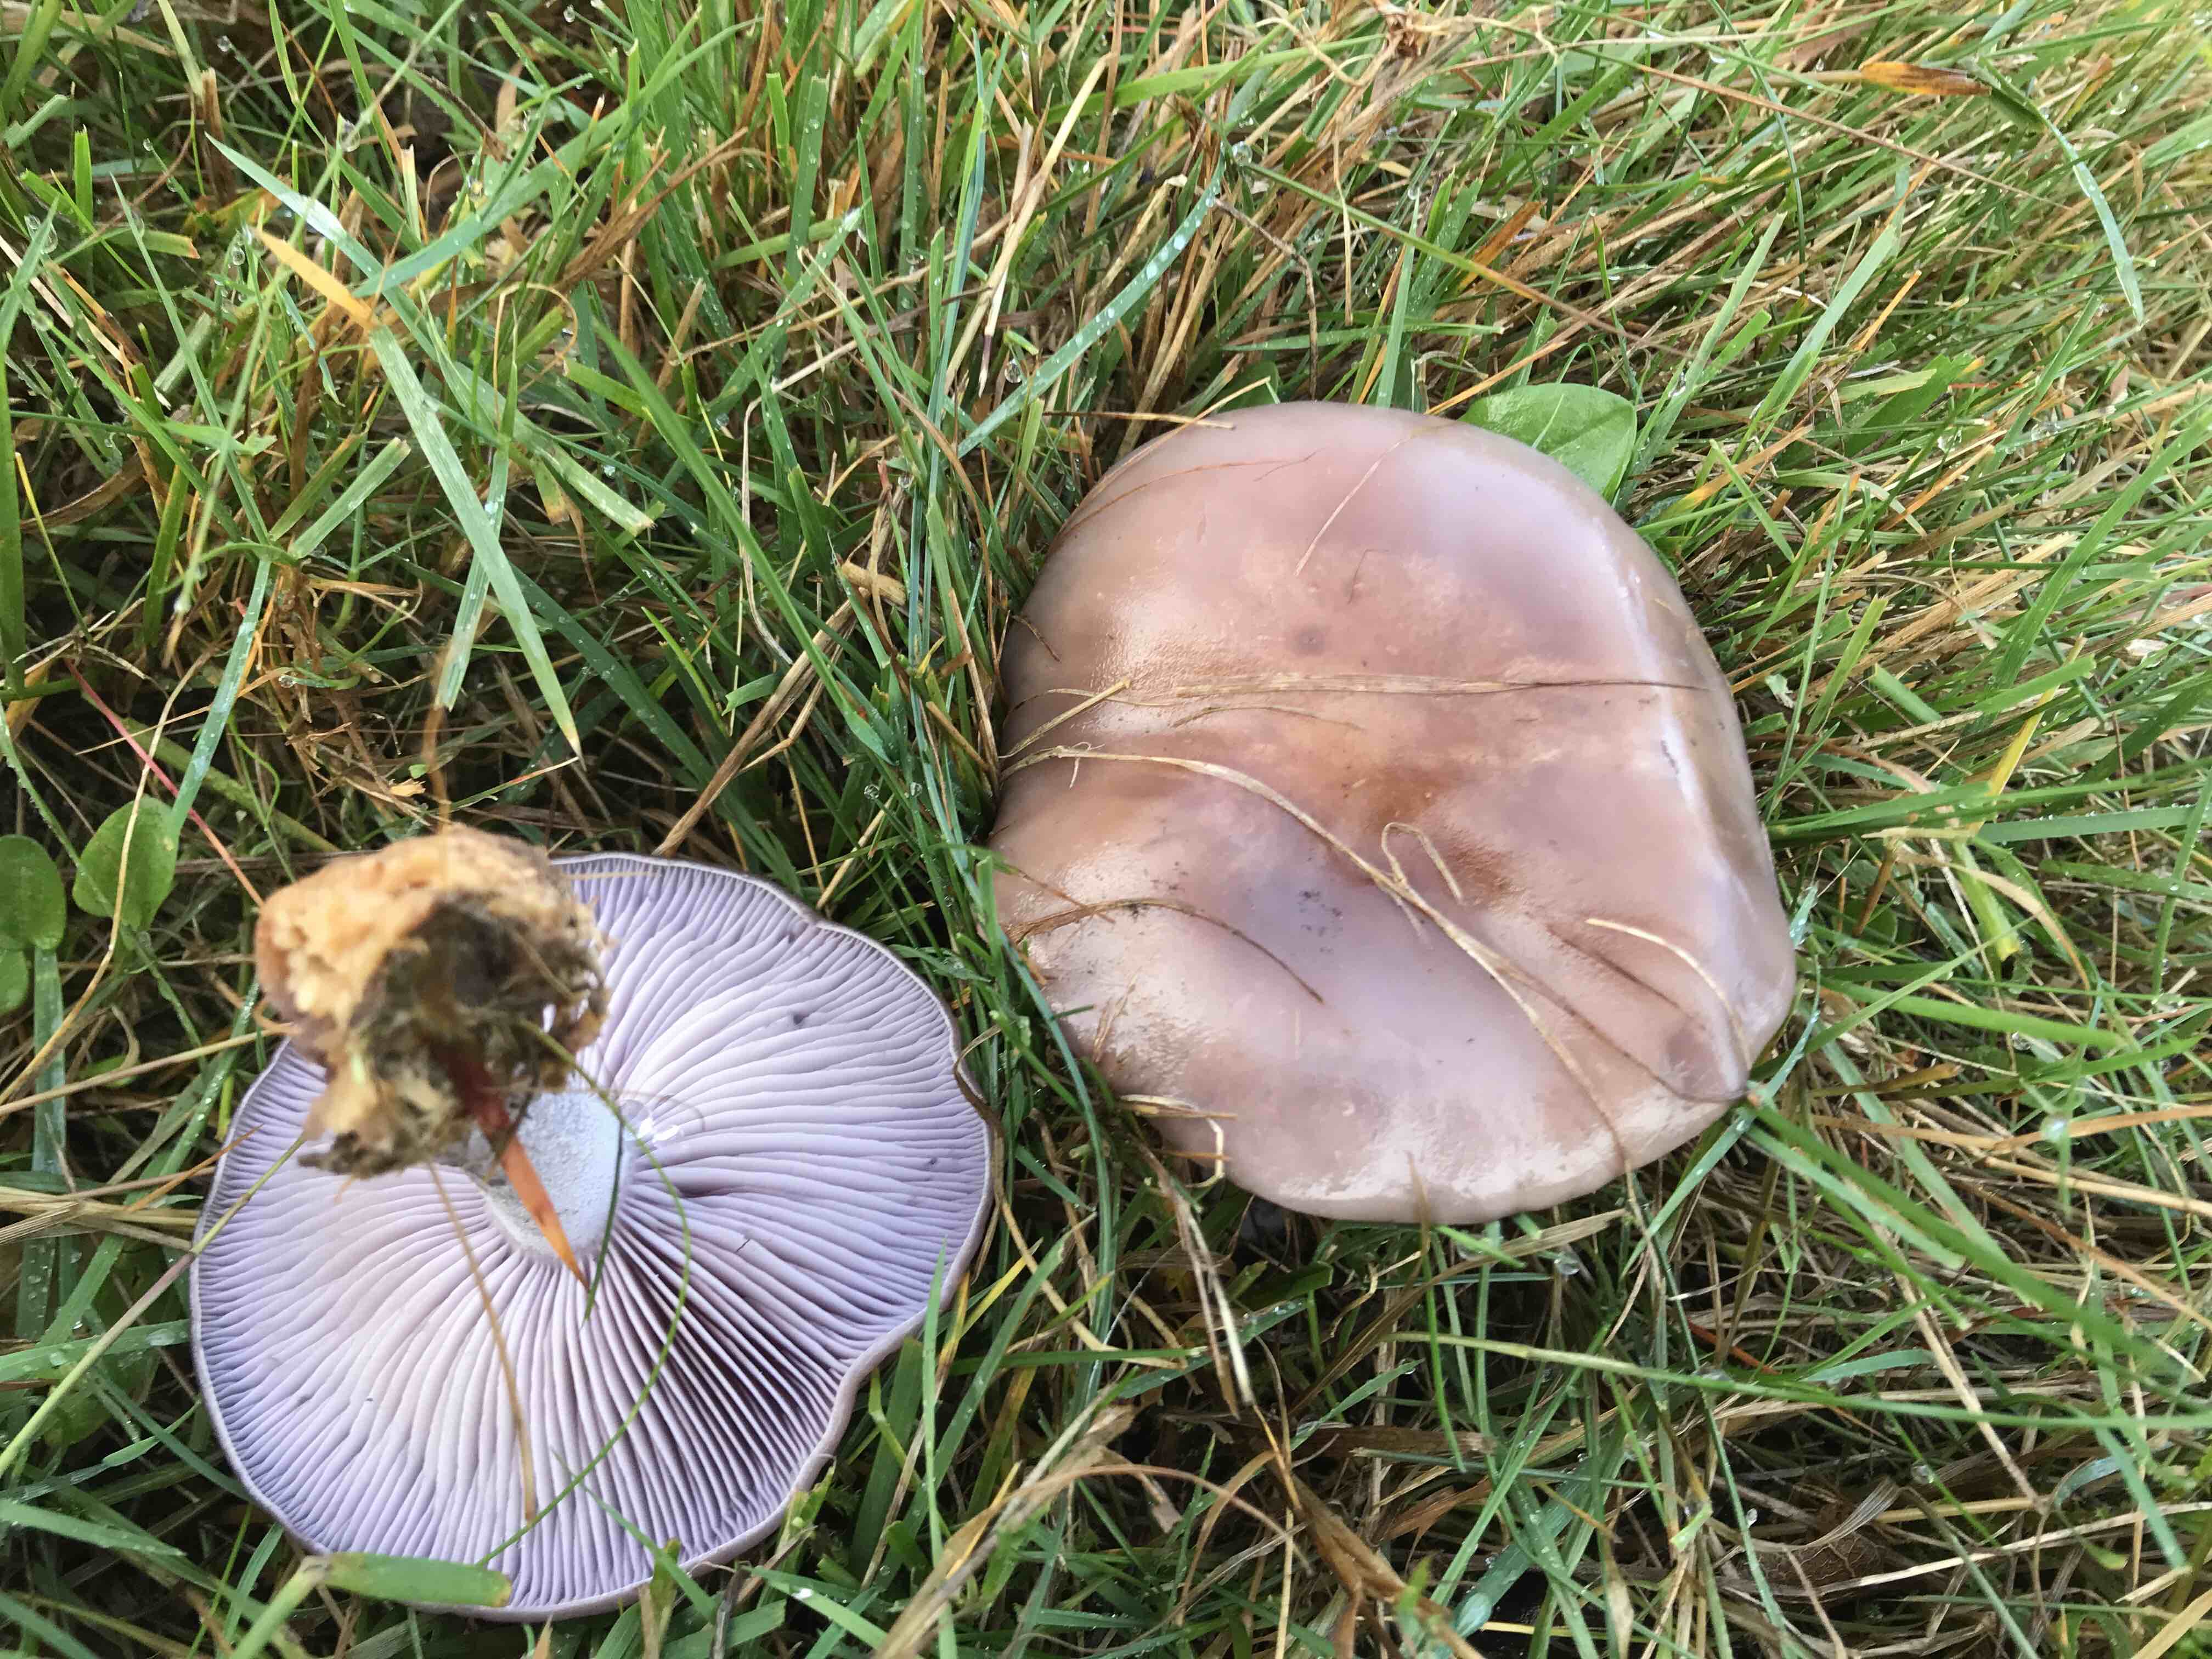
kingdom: Fungi
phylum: Basidiomycota
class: Agaricomycetes
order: Agaricales
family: Tricholomataceae
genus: Lepista
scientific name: Lepista nuda
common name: violet hekseringshat
